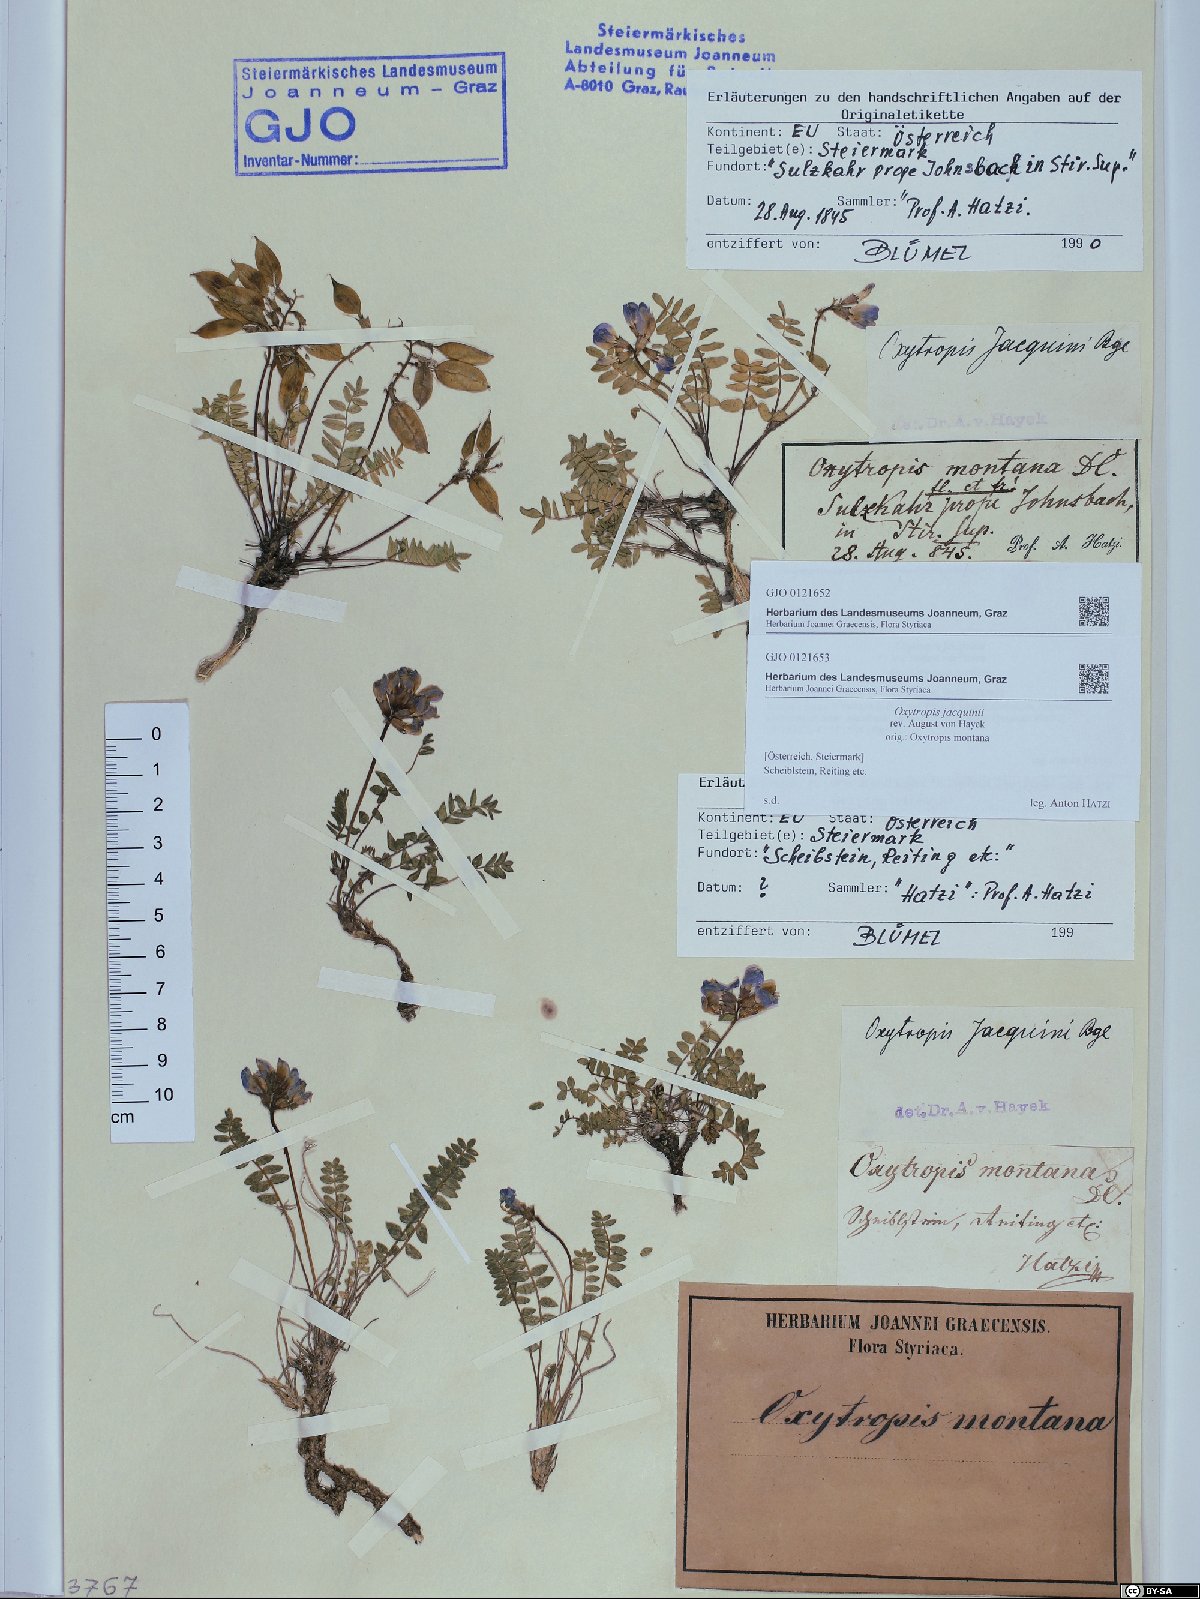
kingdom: Plantae
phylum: Tracheophyta
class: Magnoliopsida
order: Fabales
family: Fabaceae
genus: Oxytropis
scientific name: Oxytropis montana
